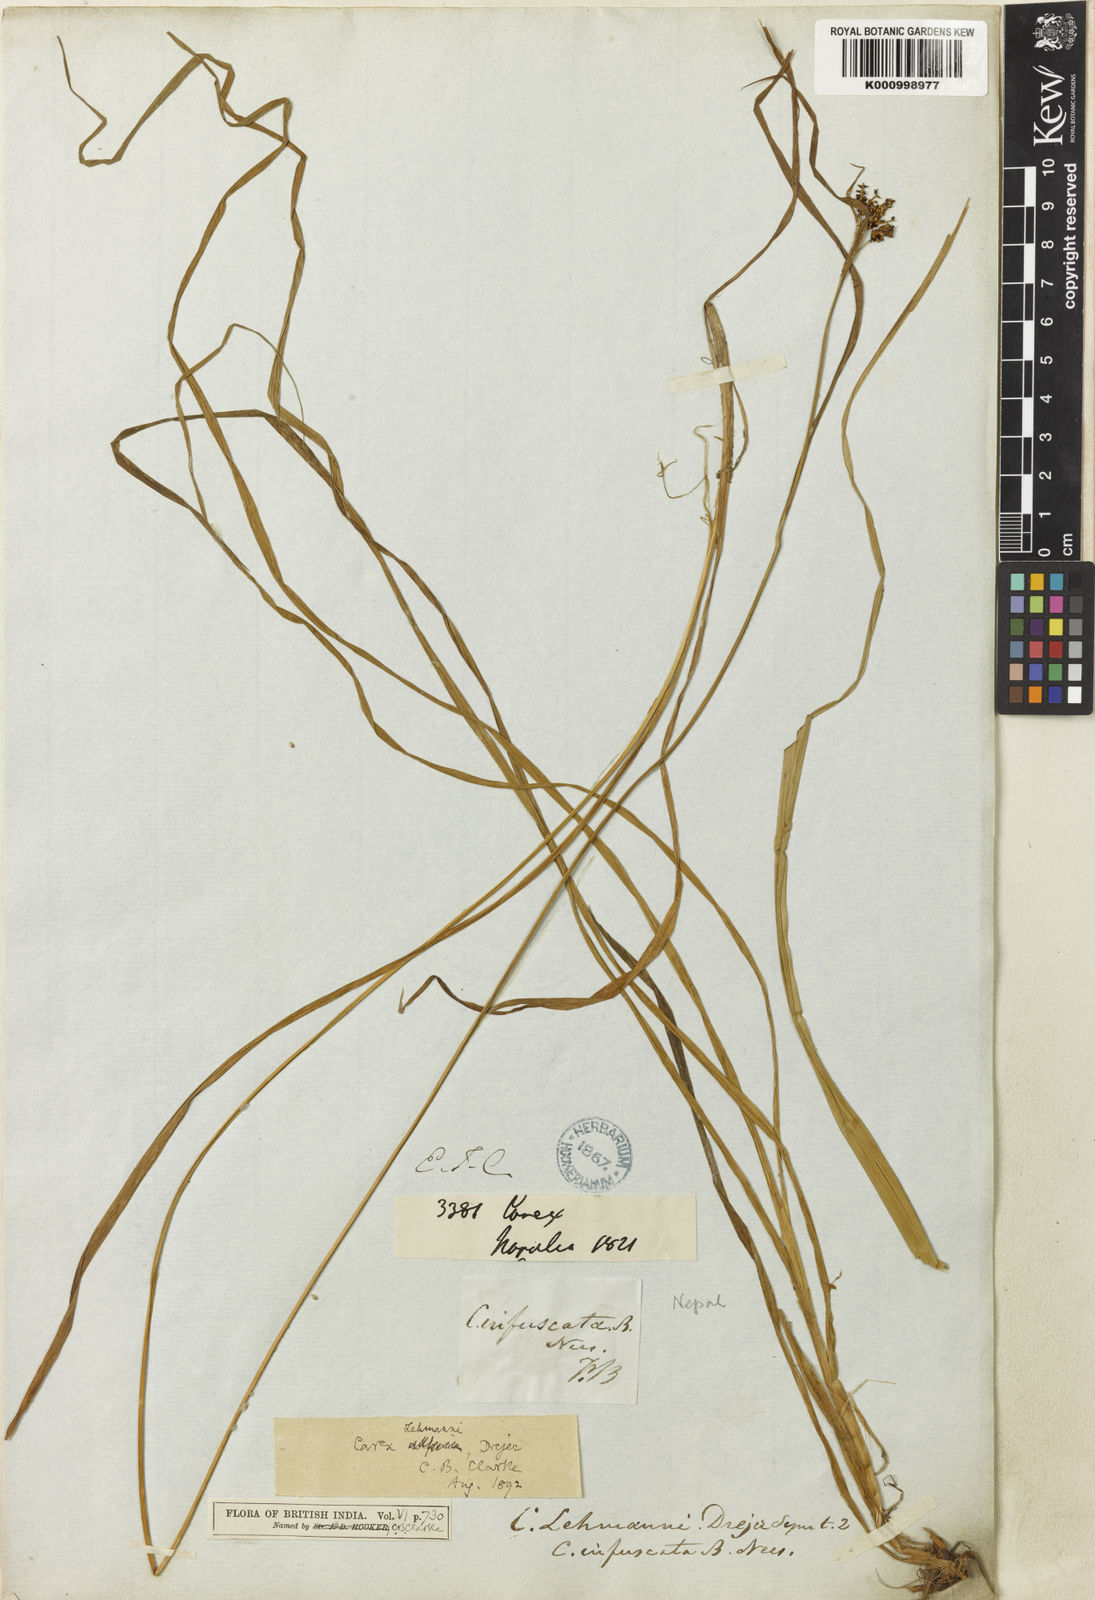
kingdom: Plantae
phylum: Tracheophyta
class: Liliopsida
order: Poales
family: Cyperaceae
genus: Carex
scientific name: Carex lehmannii
